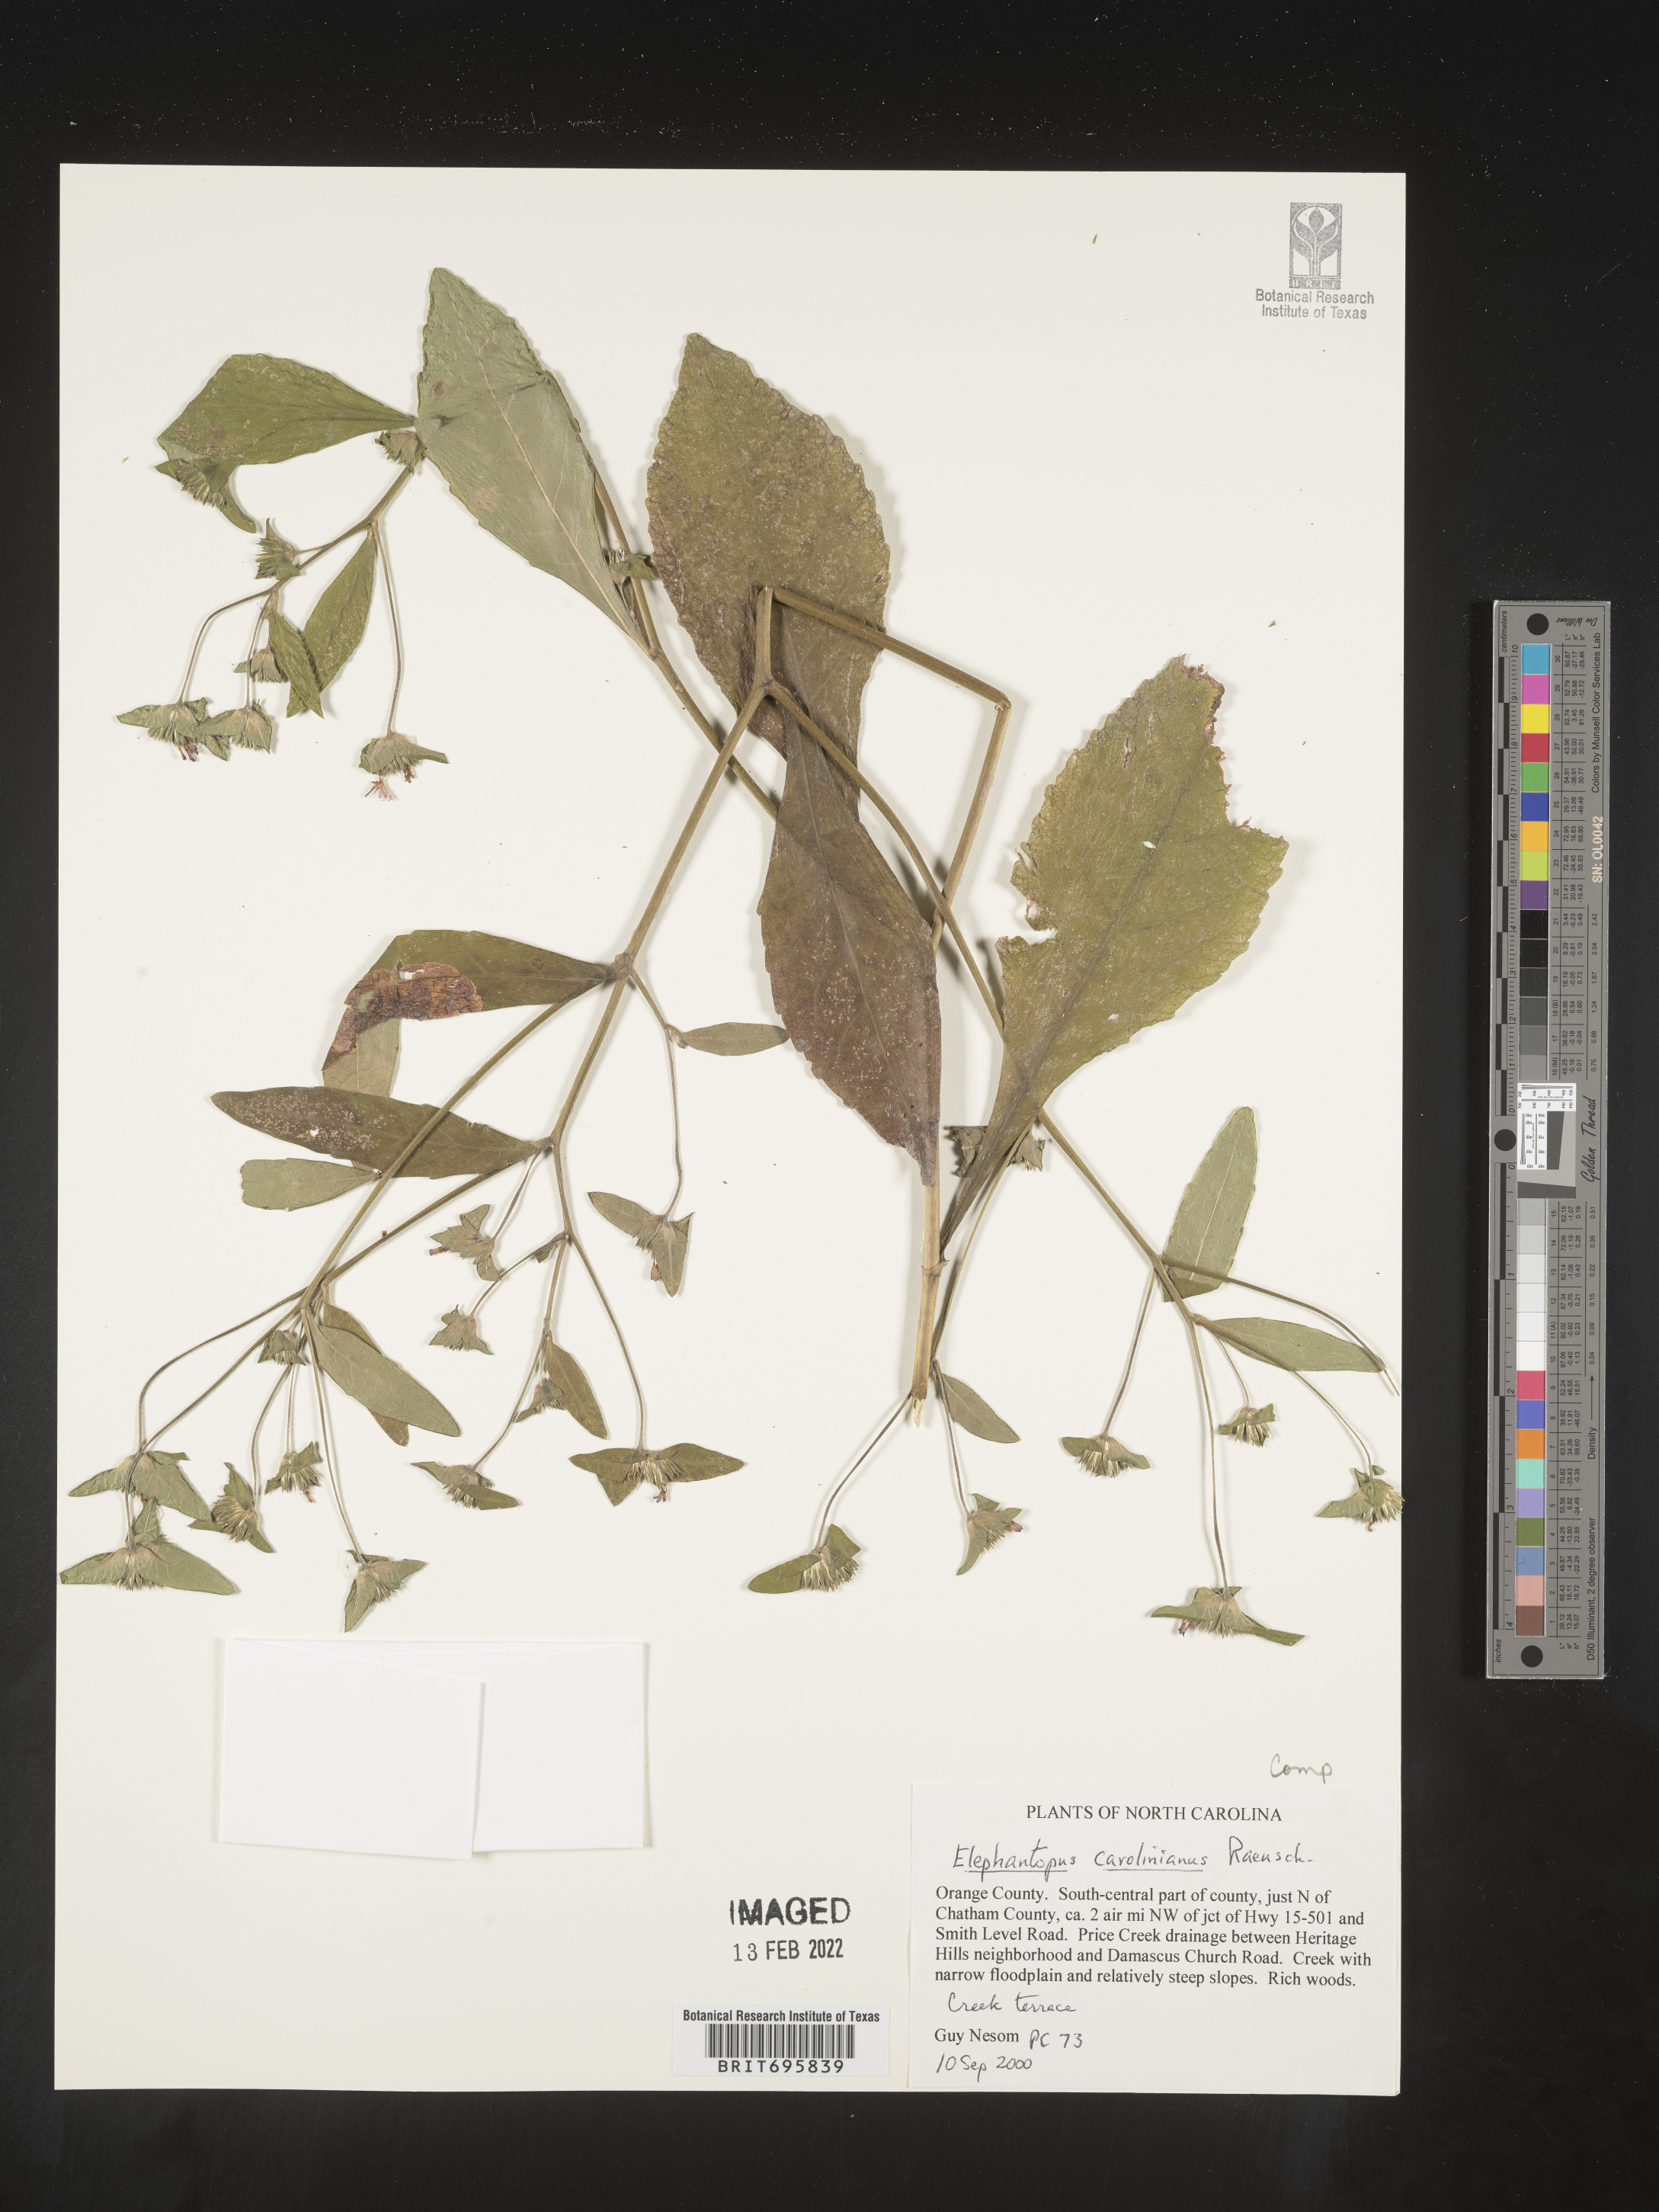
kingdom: Plantae
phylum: Tracheophyta
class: Magnoliopsida
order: Asterales
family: Asteraceae
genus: Elephantopus
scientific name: Elephantopus carolinianus
